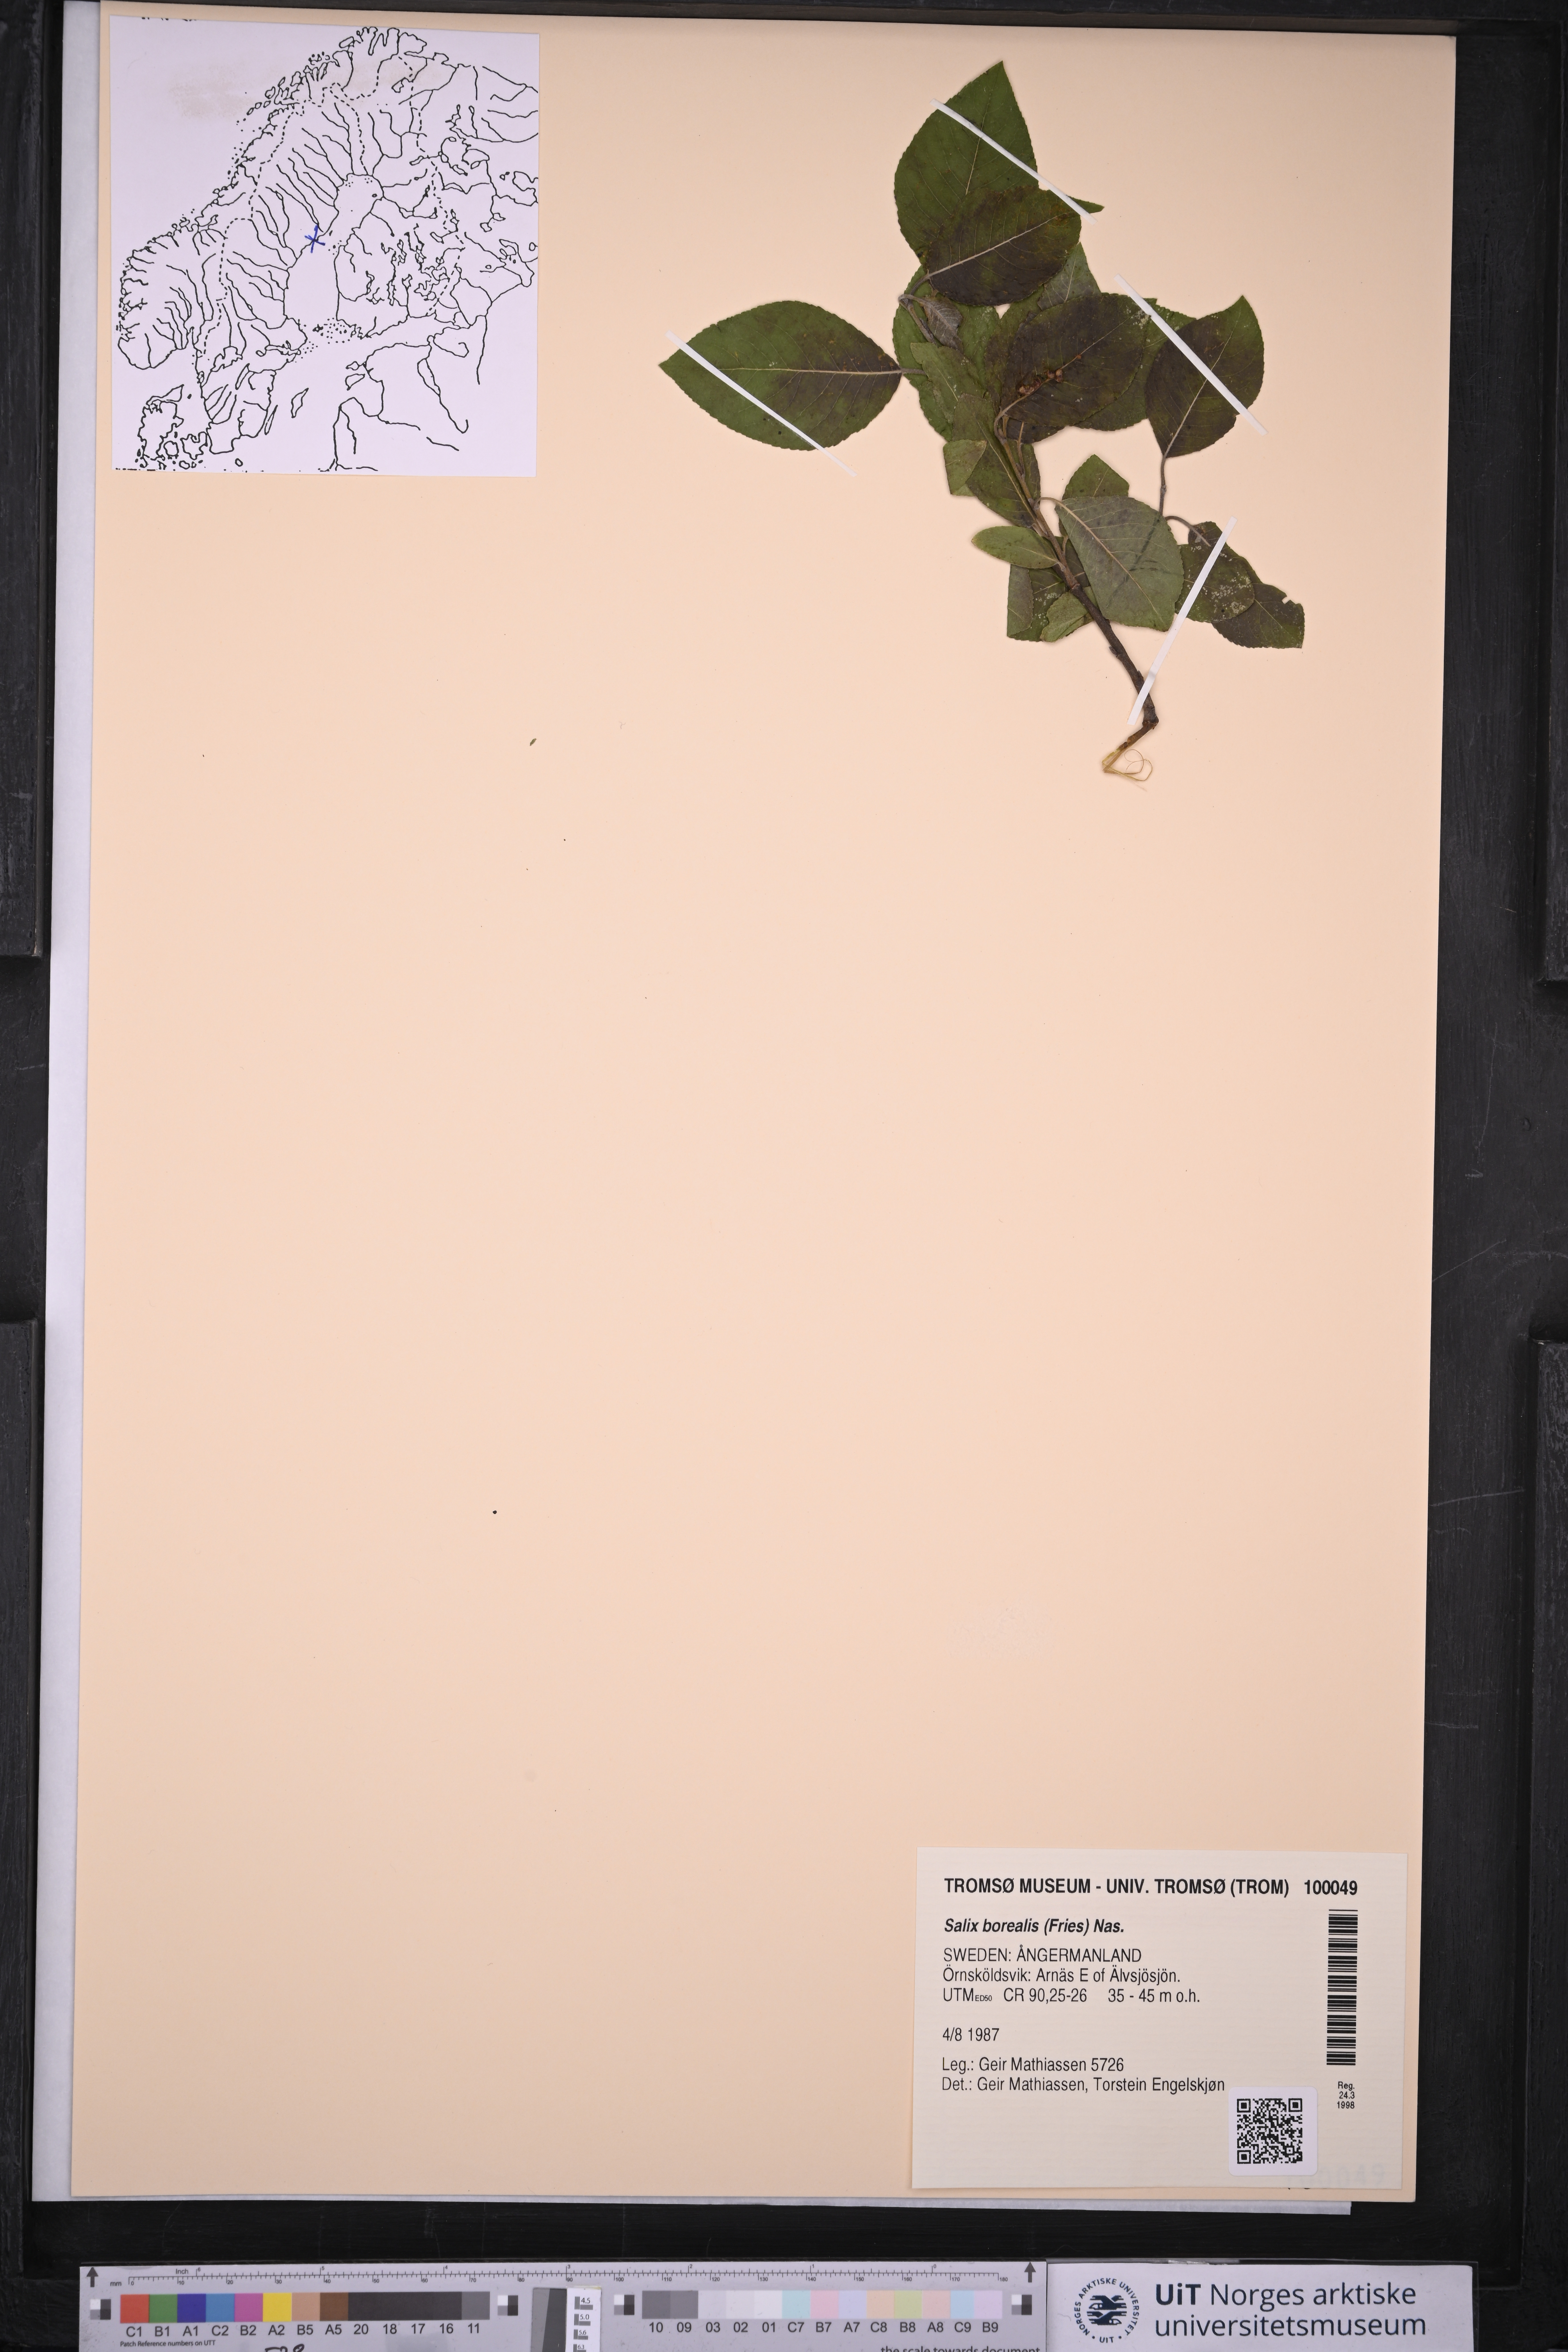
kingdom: Plantae
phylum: Tracheophyta
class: Magnoliopsida
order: Malpighiales
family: Salicaceae
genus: Salix
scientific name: Salix myrsinifolia
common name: Dark-leaved willow
